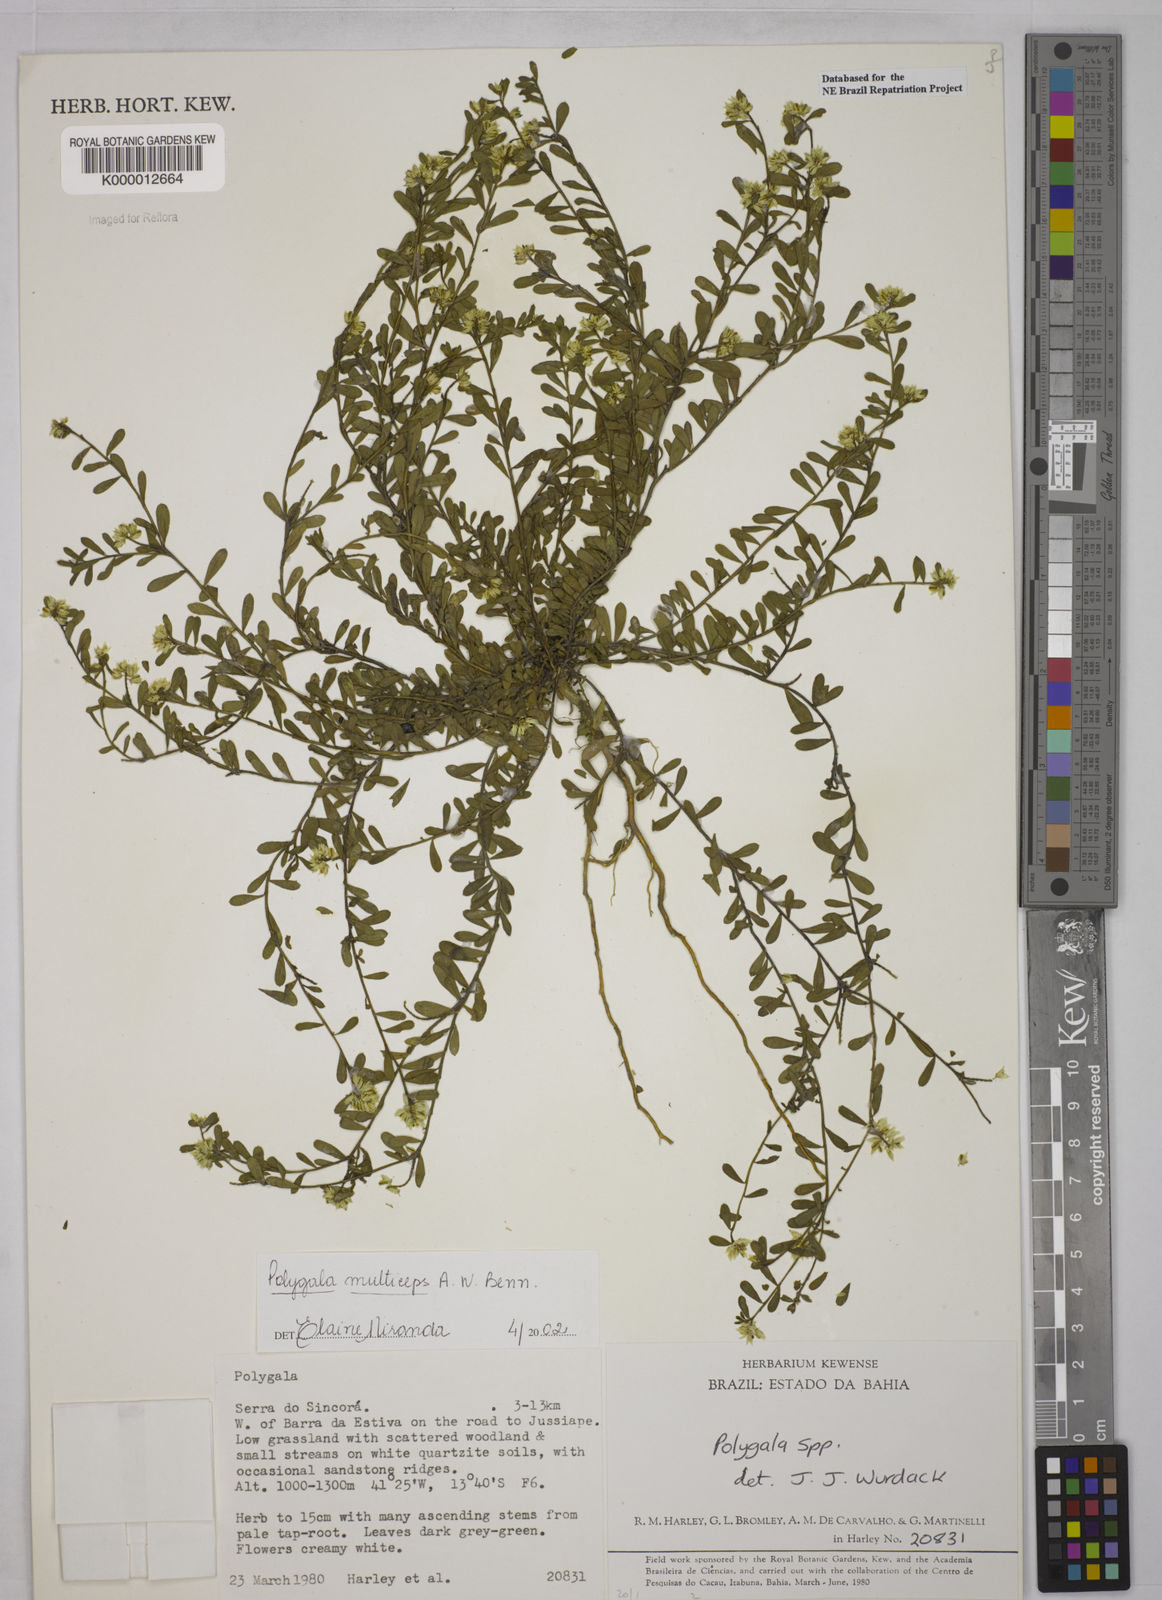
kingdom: Plantae
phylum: Tracheophyta
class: Magnoliopsida
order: Fabales
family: Polygalaceae
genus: Polygala
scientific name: Polygala
